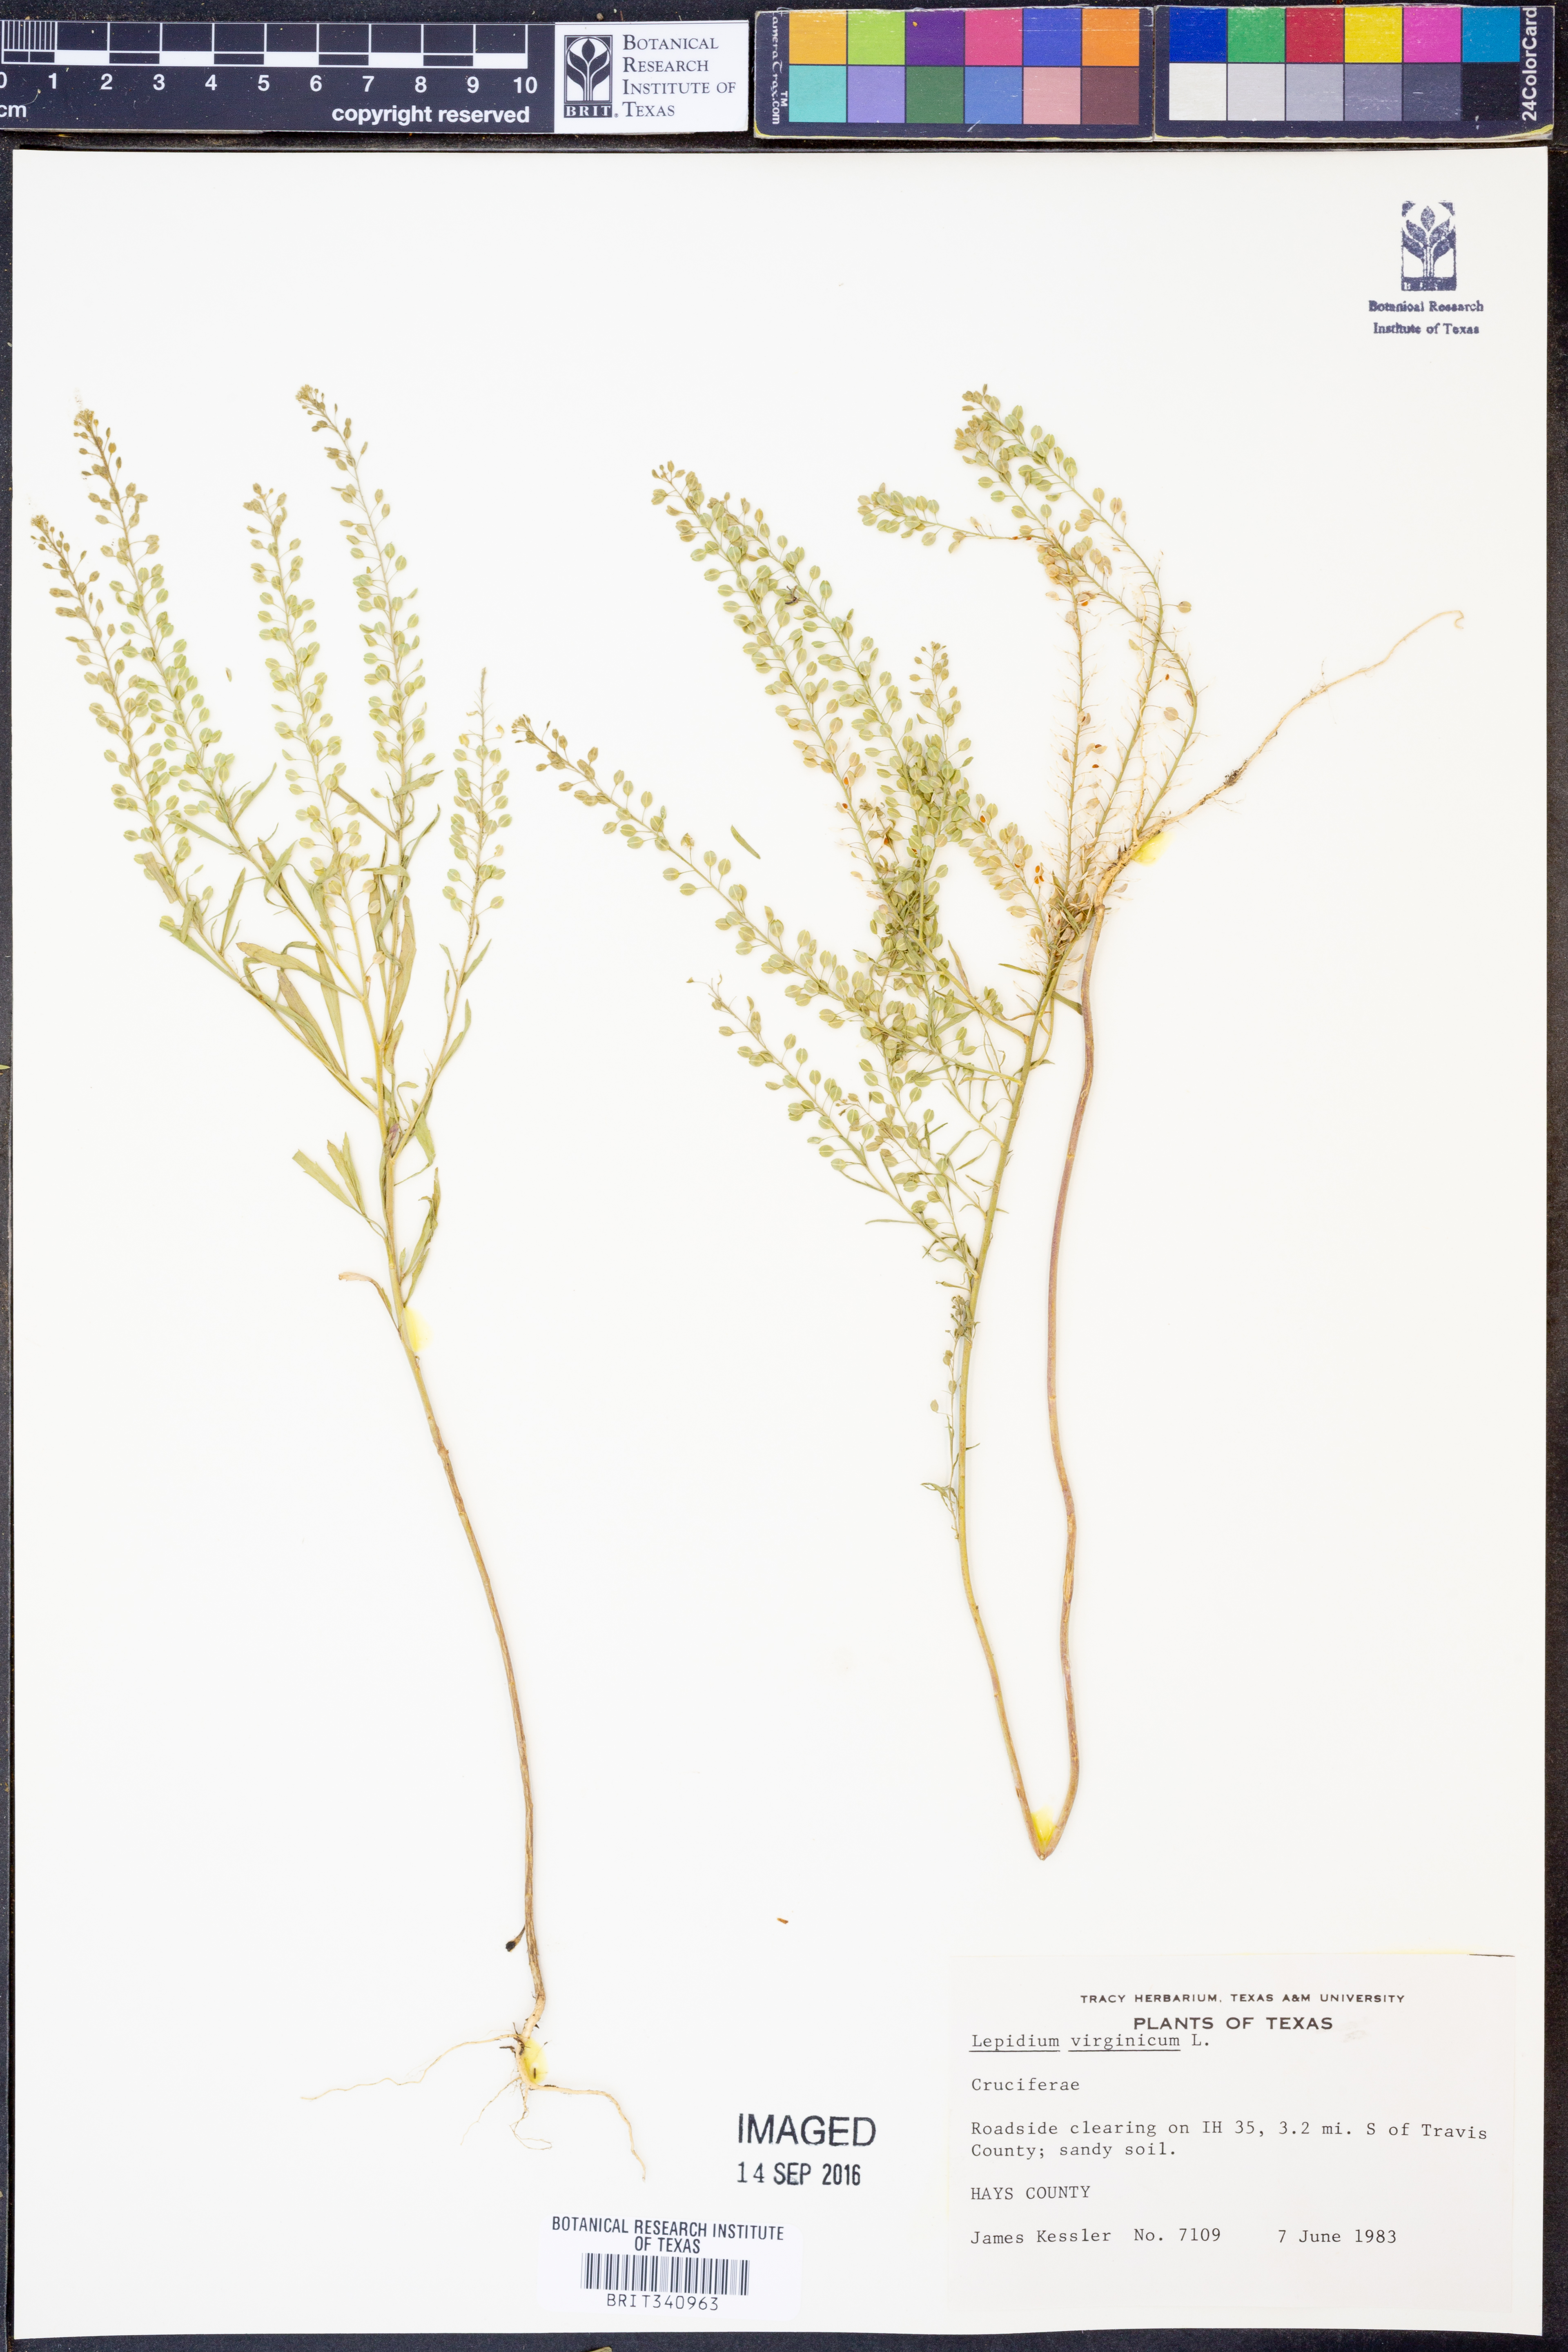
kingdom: Plantae
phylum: Tracheophyta
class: Magnoliopsida
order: Brassicales
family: Brassicaceae
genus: Lepidium
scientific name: Lepidium virginicum
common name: Least pepperwort
